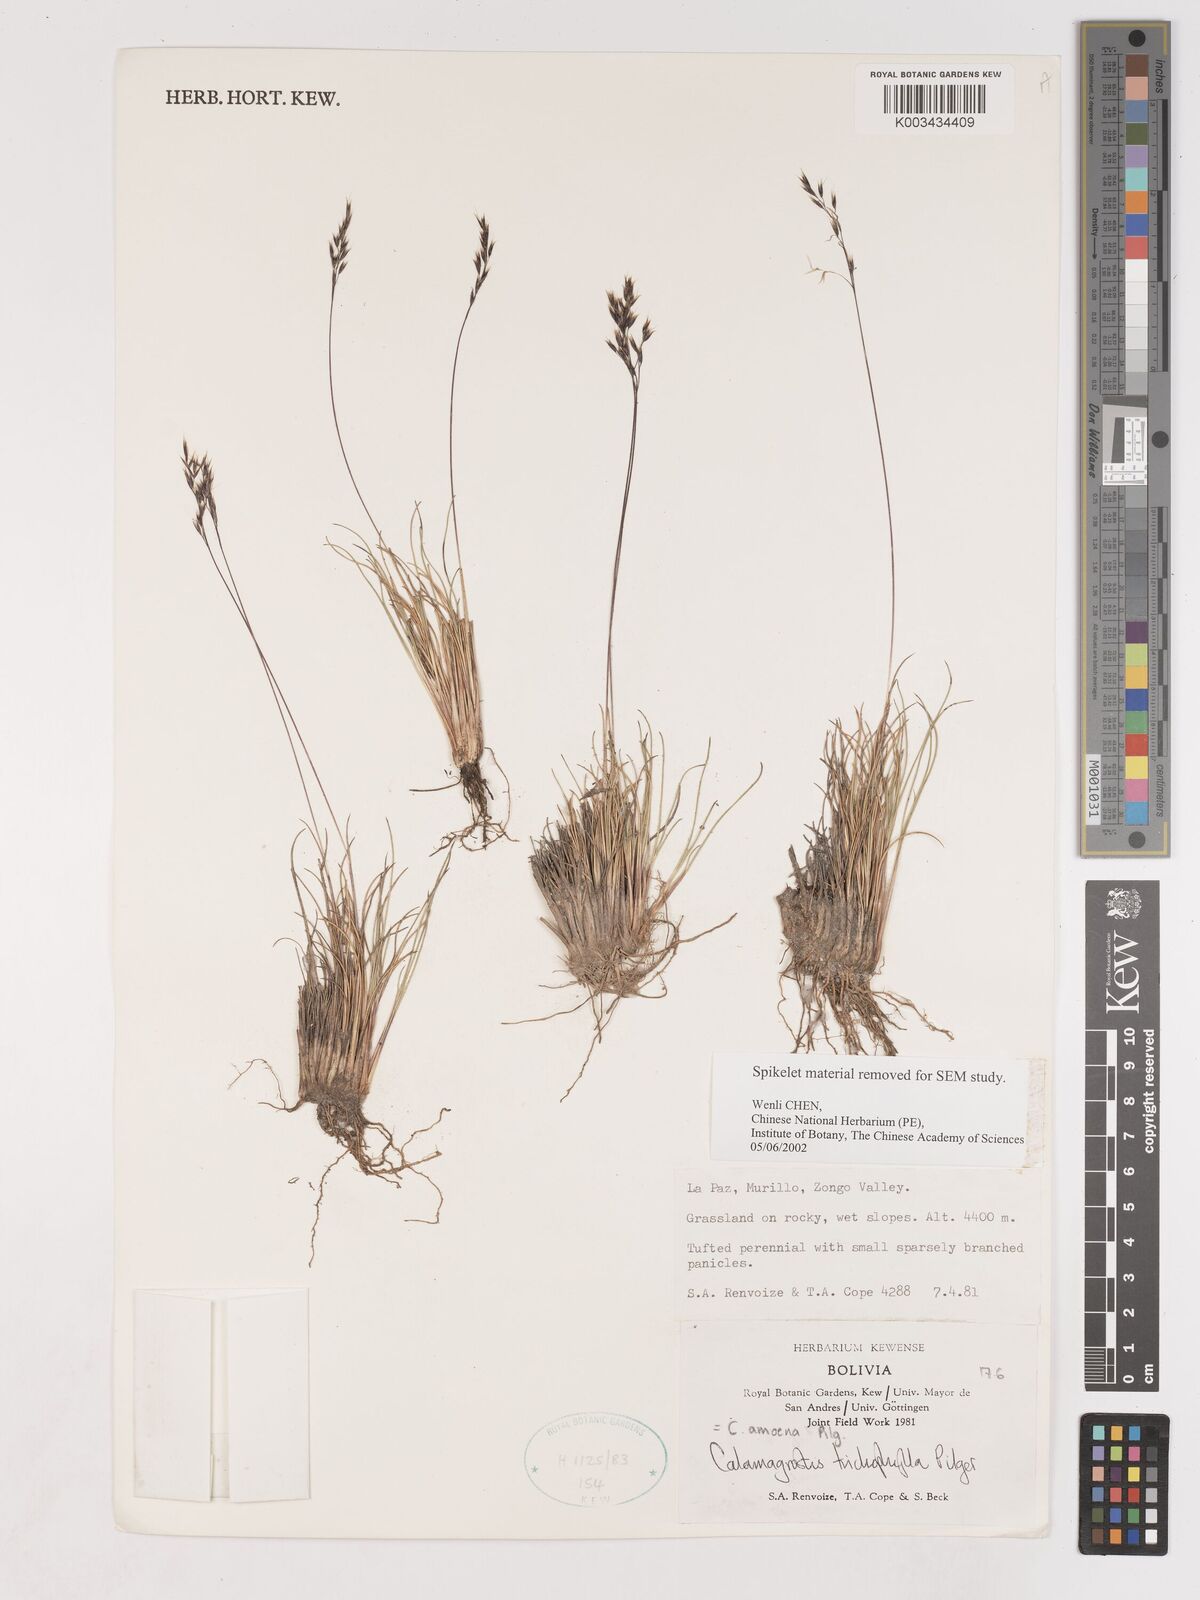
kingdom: Plantae
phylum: Tracheophyta
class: Liliopsida
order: Poales
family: Poaceae
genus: Cinnagrostis
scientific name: Cinnagrostis filifolia
